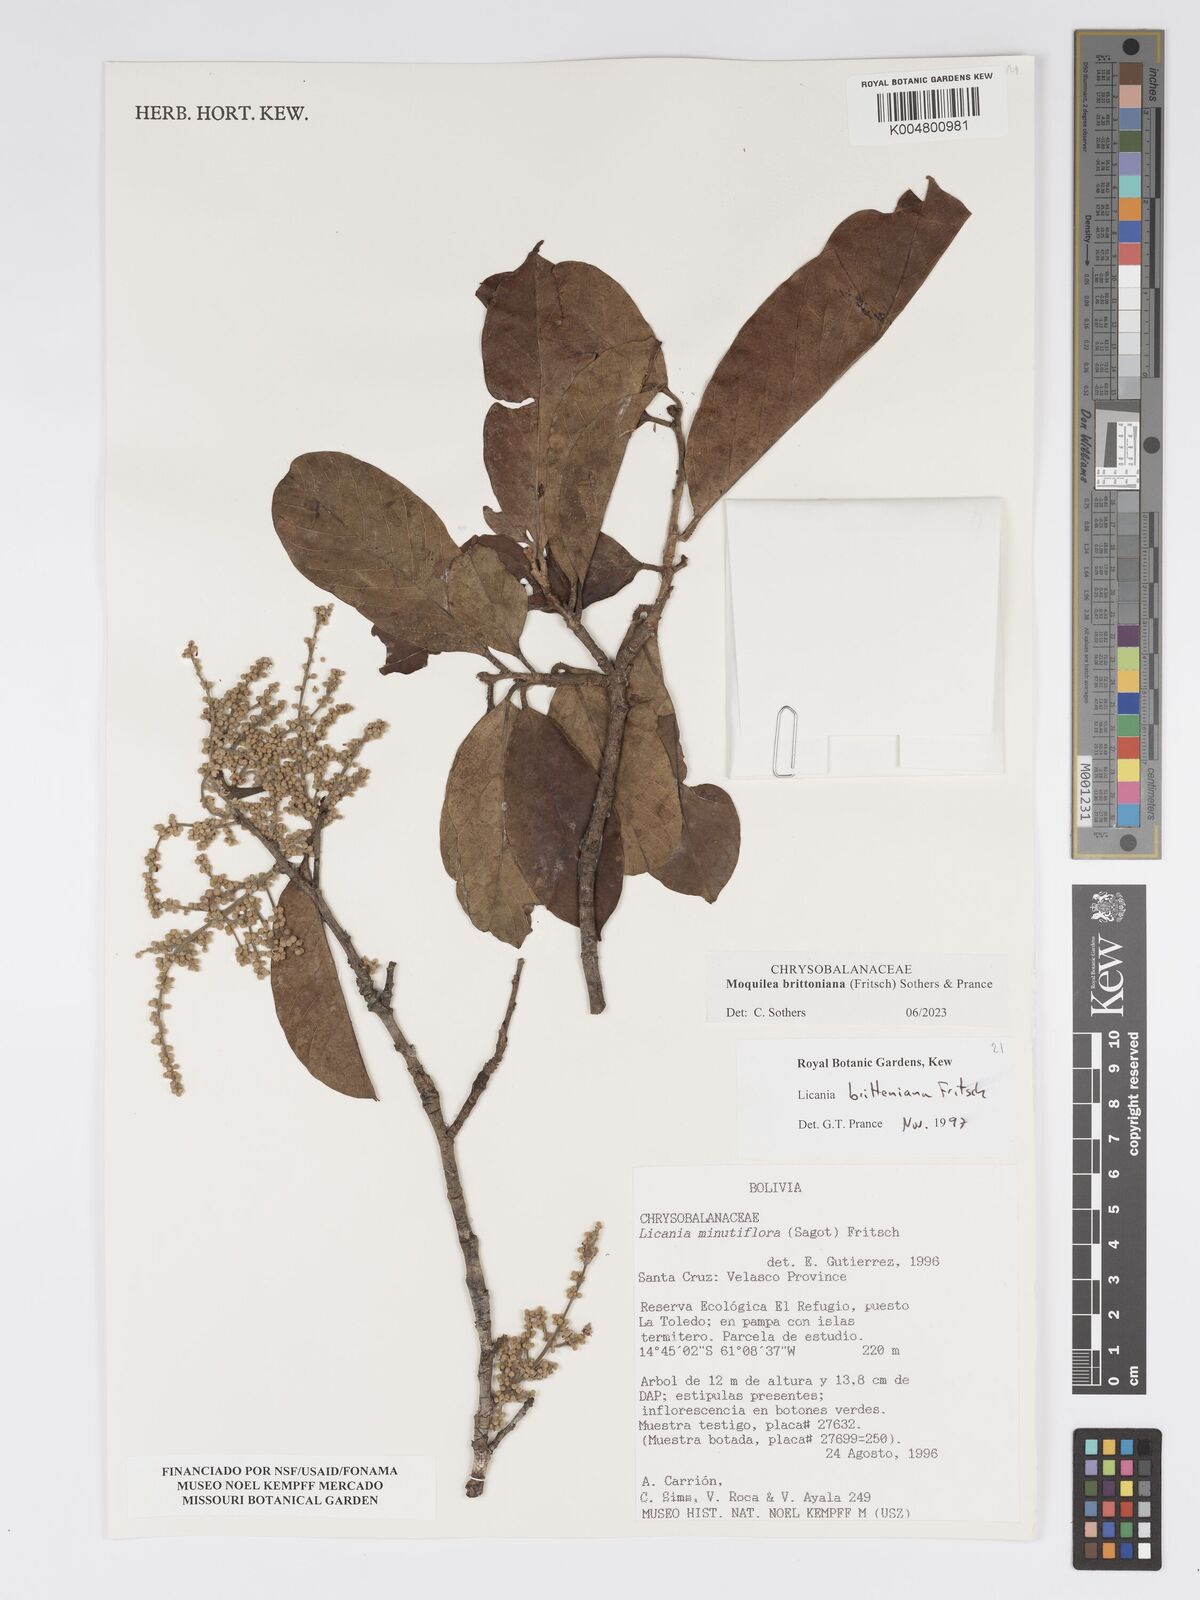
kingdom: Plantae
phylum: Tracheophyta
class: Magnoliopsida
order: Malpighiales
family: Chrysobalanaceae
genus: Moquilea
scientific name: Moquilea brittoniana
